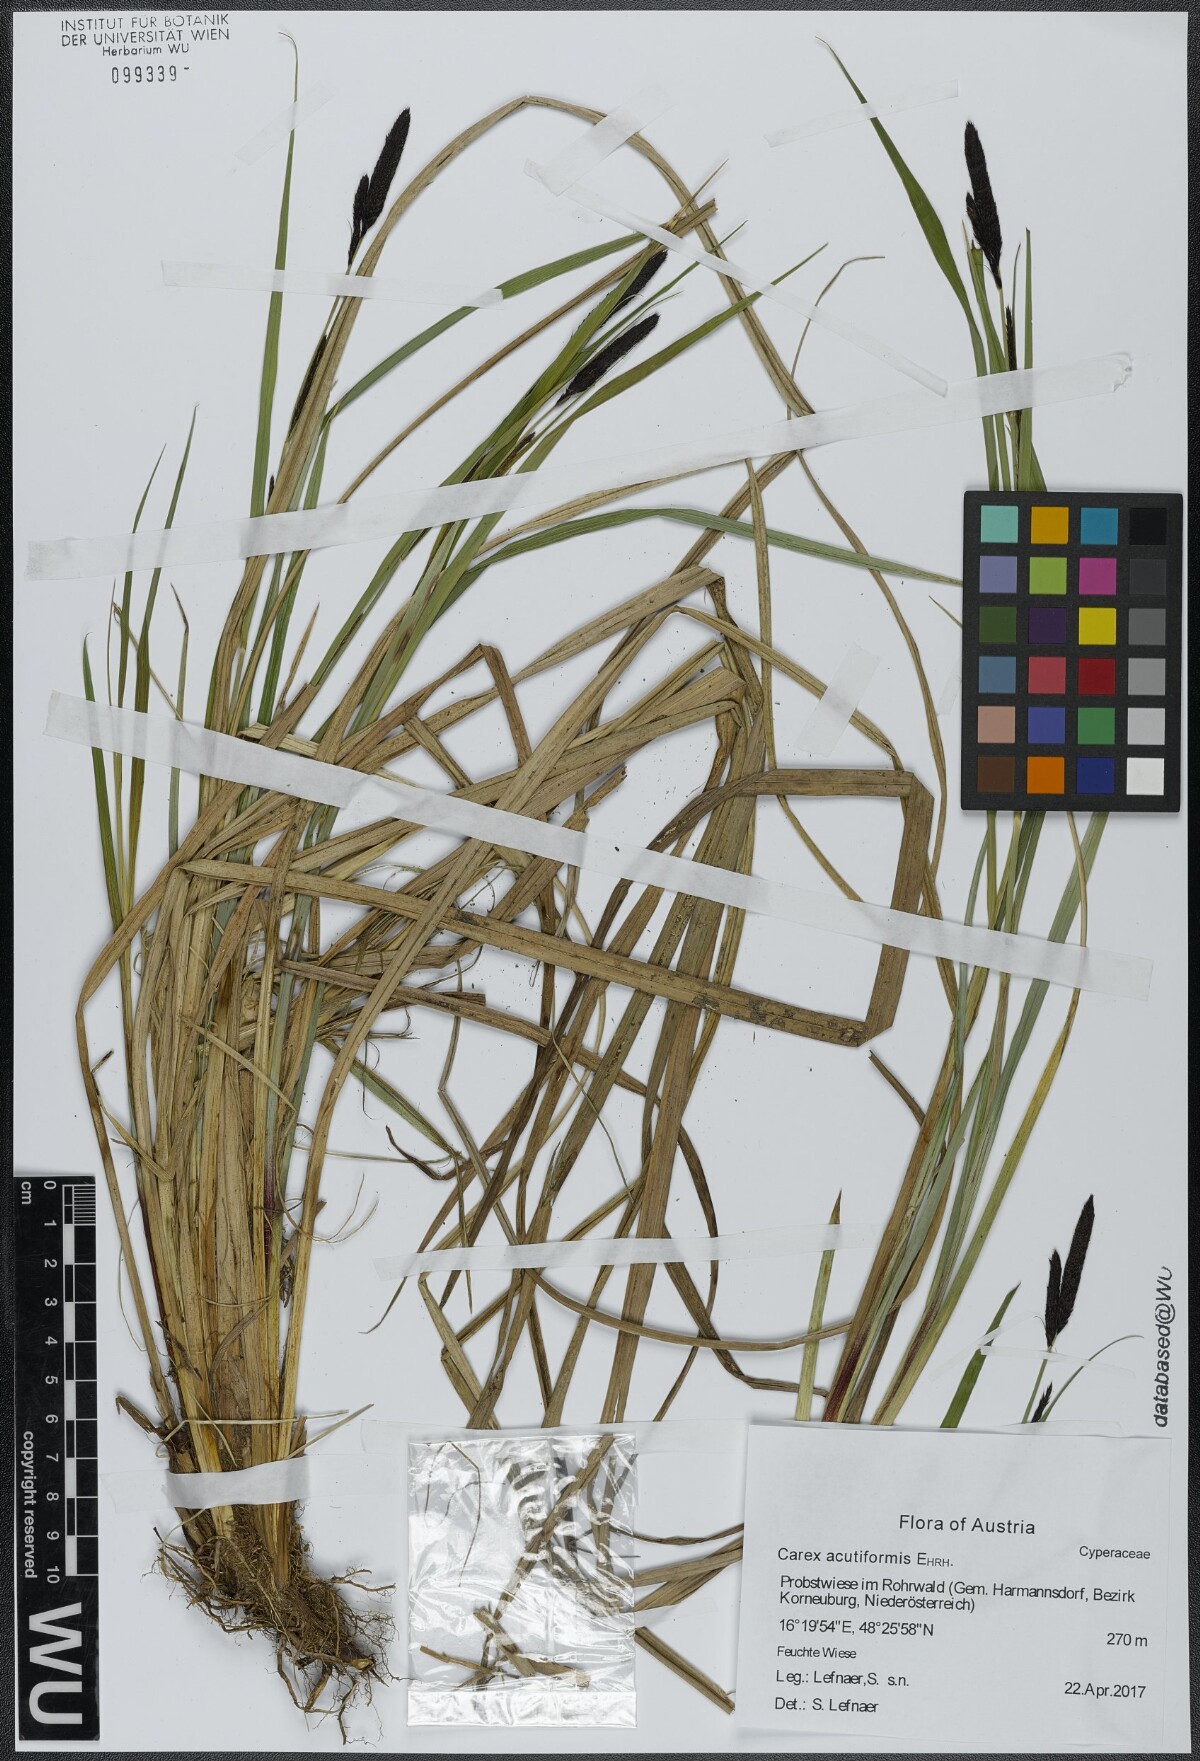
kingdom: Plantae
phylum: Tracheophyta
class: Liliopsida
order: Poales
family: Cyperaceae
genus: Carex
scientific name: Carex acutiformis
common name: Lesser pond-sedge
